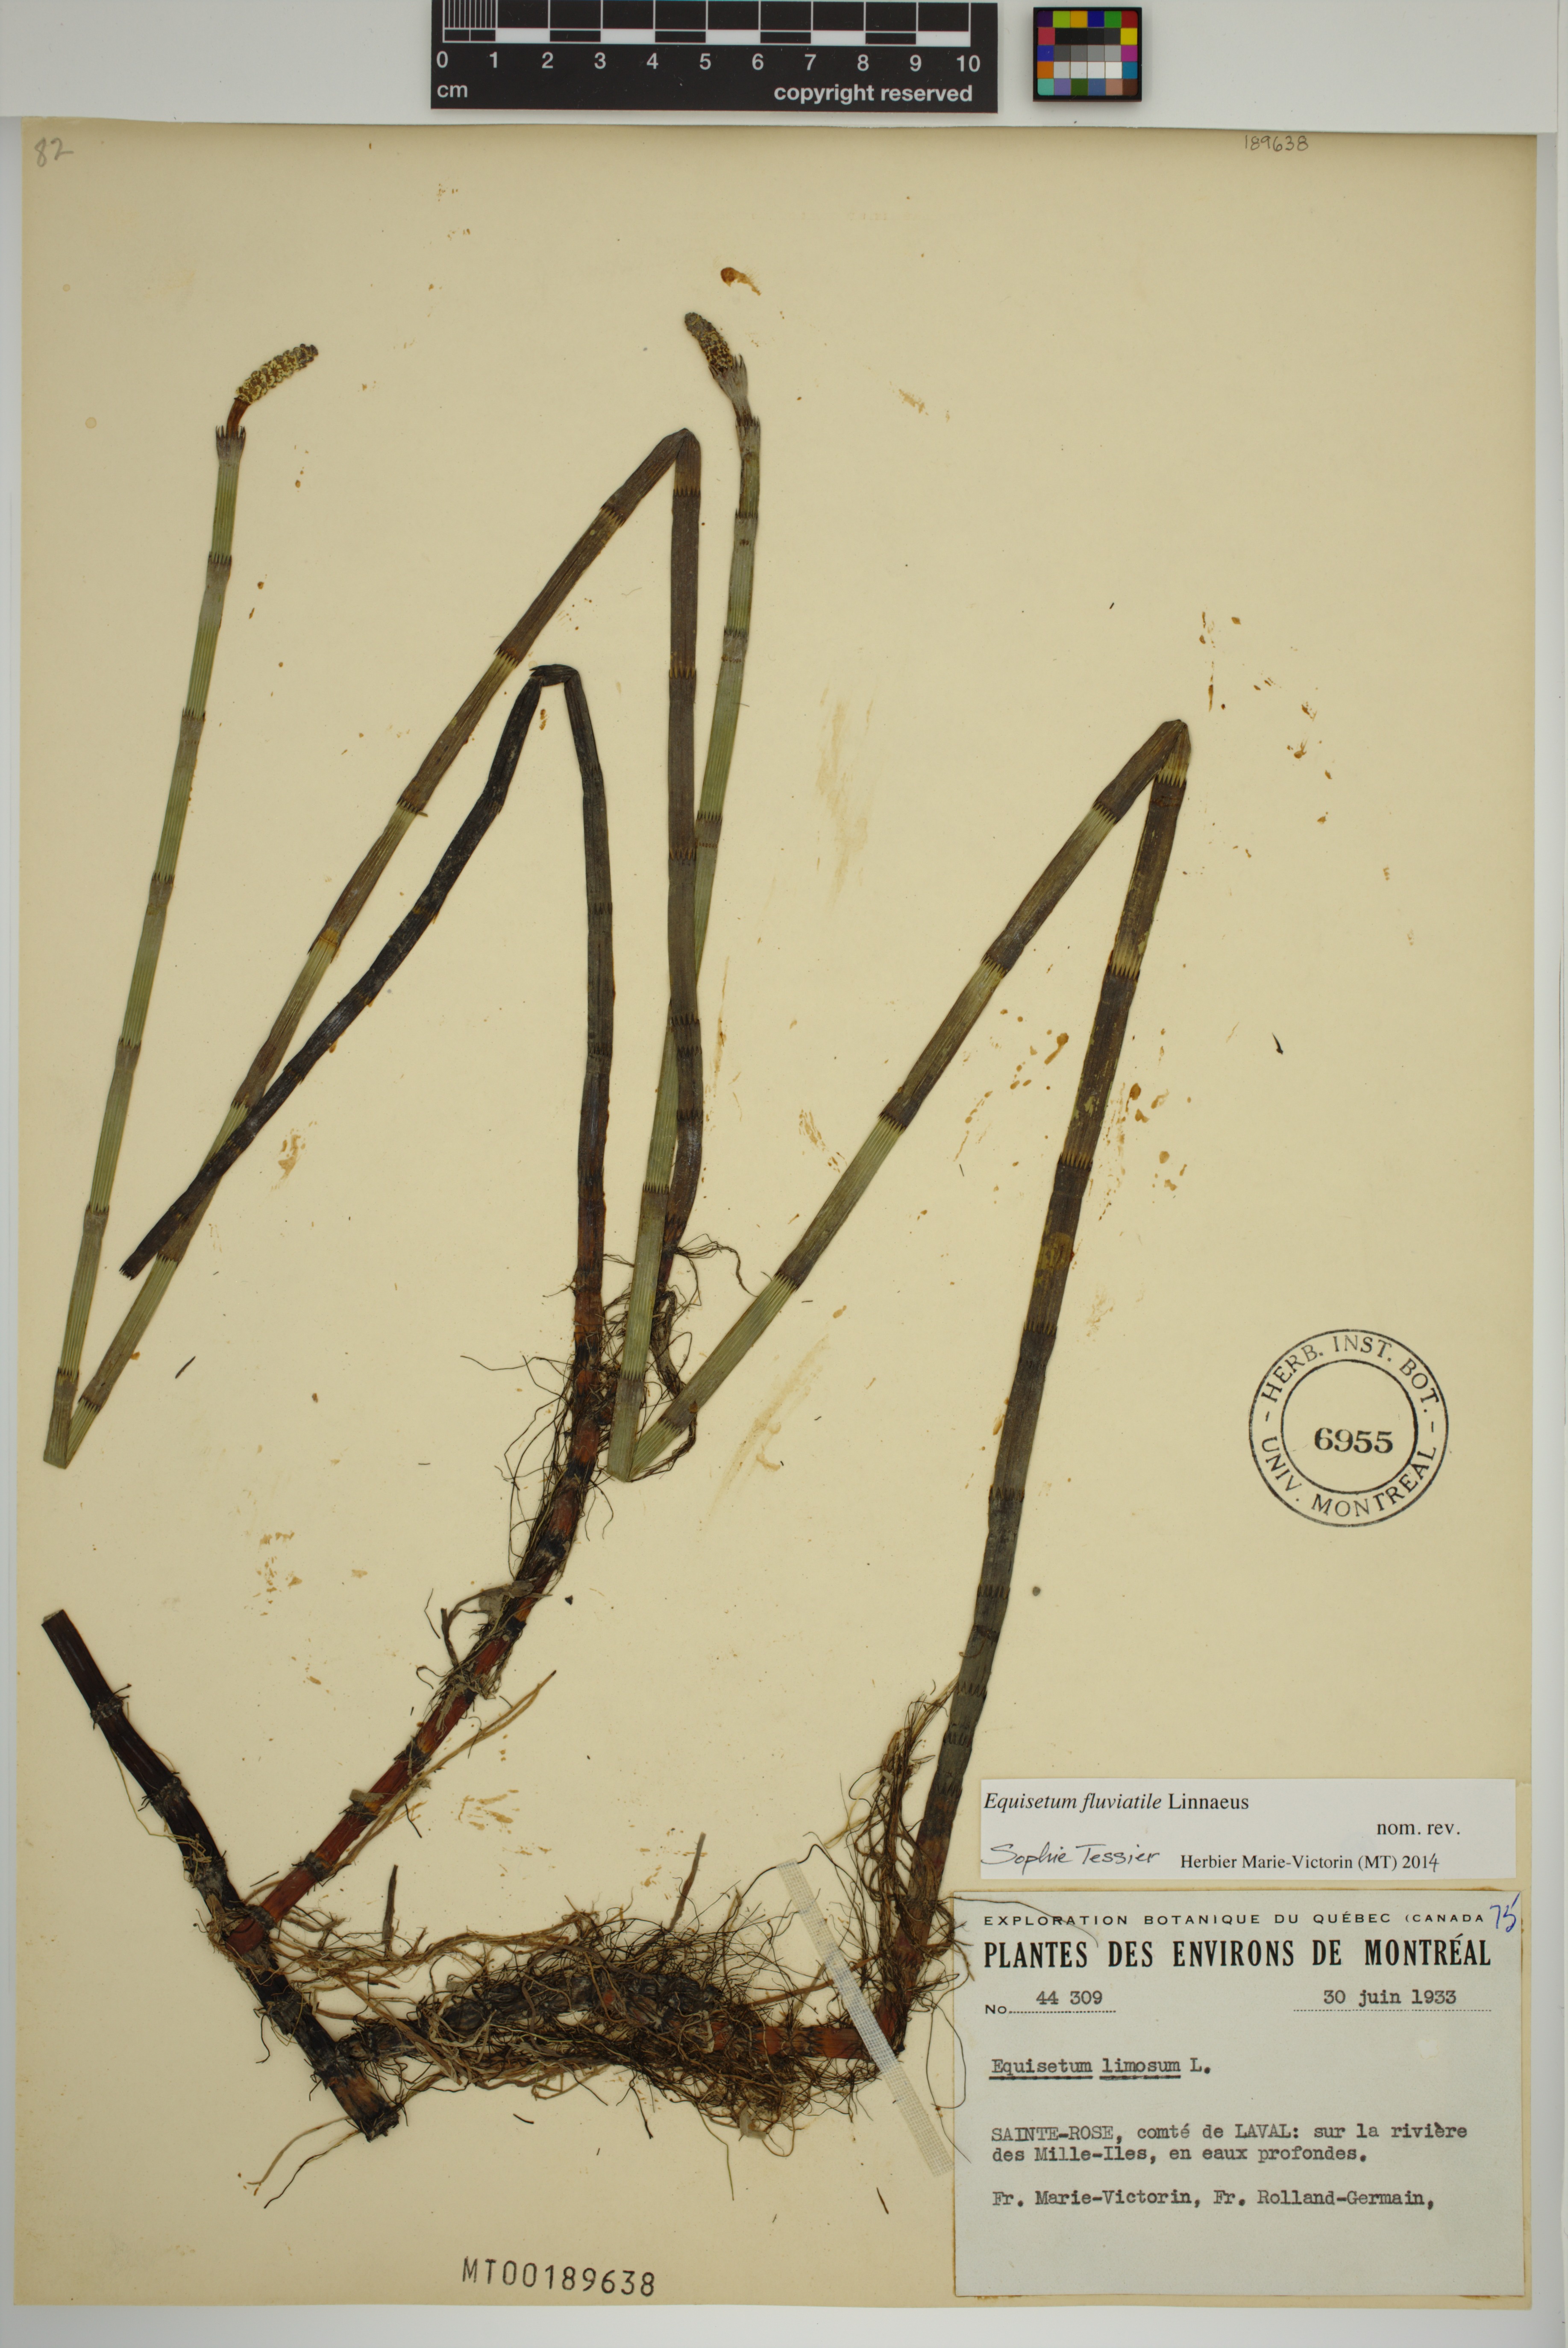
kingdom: Plantae
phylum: Tracheophyta
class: Polypodiopsida
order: Equisetales
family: Equisetaceae
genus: Equisetum
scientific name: Equisetum fluviatile
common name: Water horsetail
